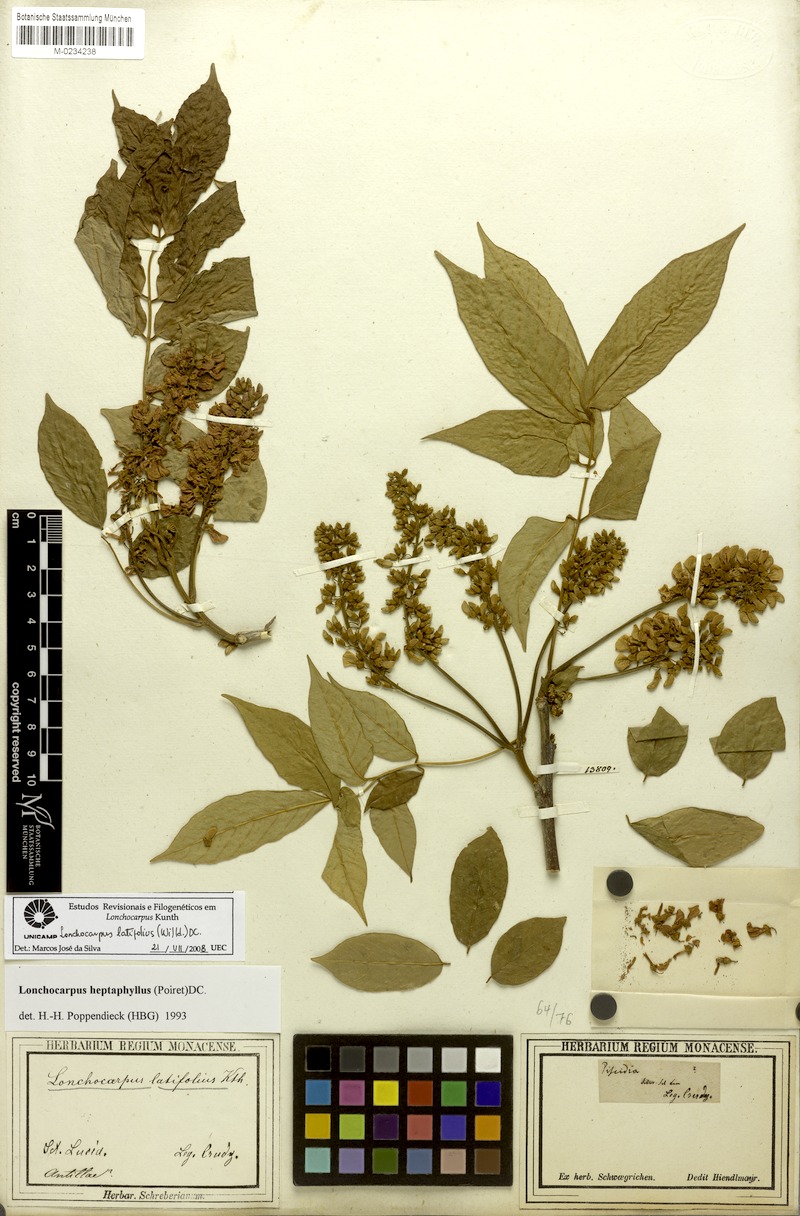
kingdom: Plantae
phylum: Tracheophyta
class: Magnoliopsida
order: Fabales
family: Fabaceae
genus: Lonchocarpus
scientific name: Lonchocarpus heptaphyllus
